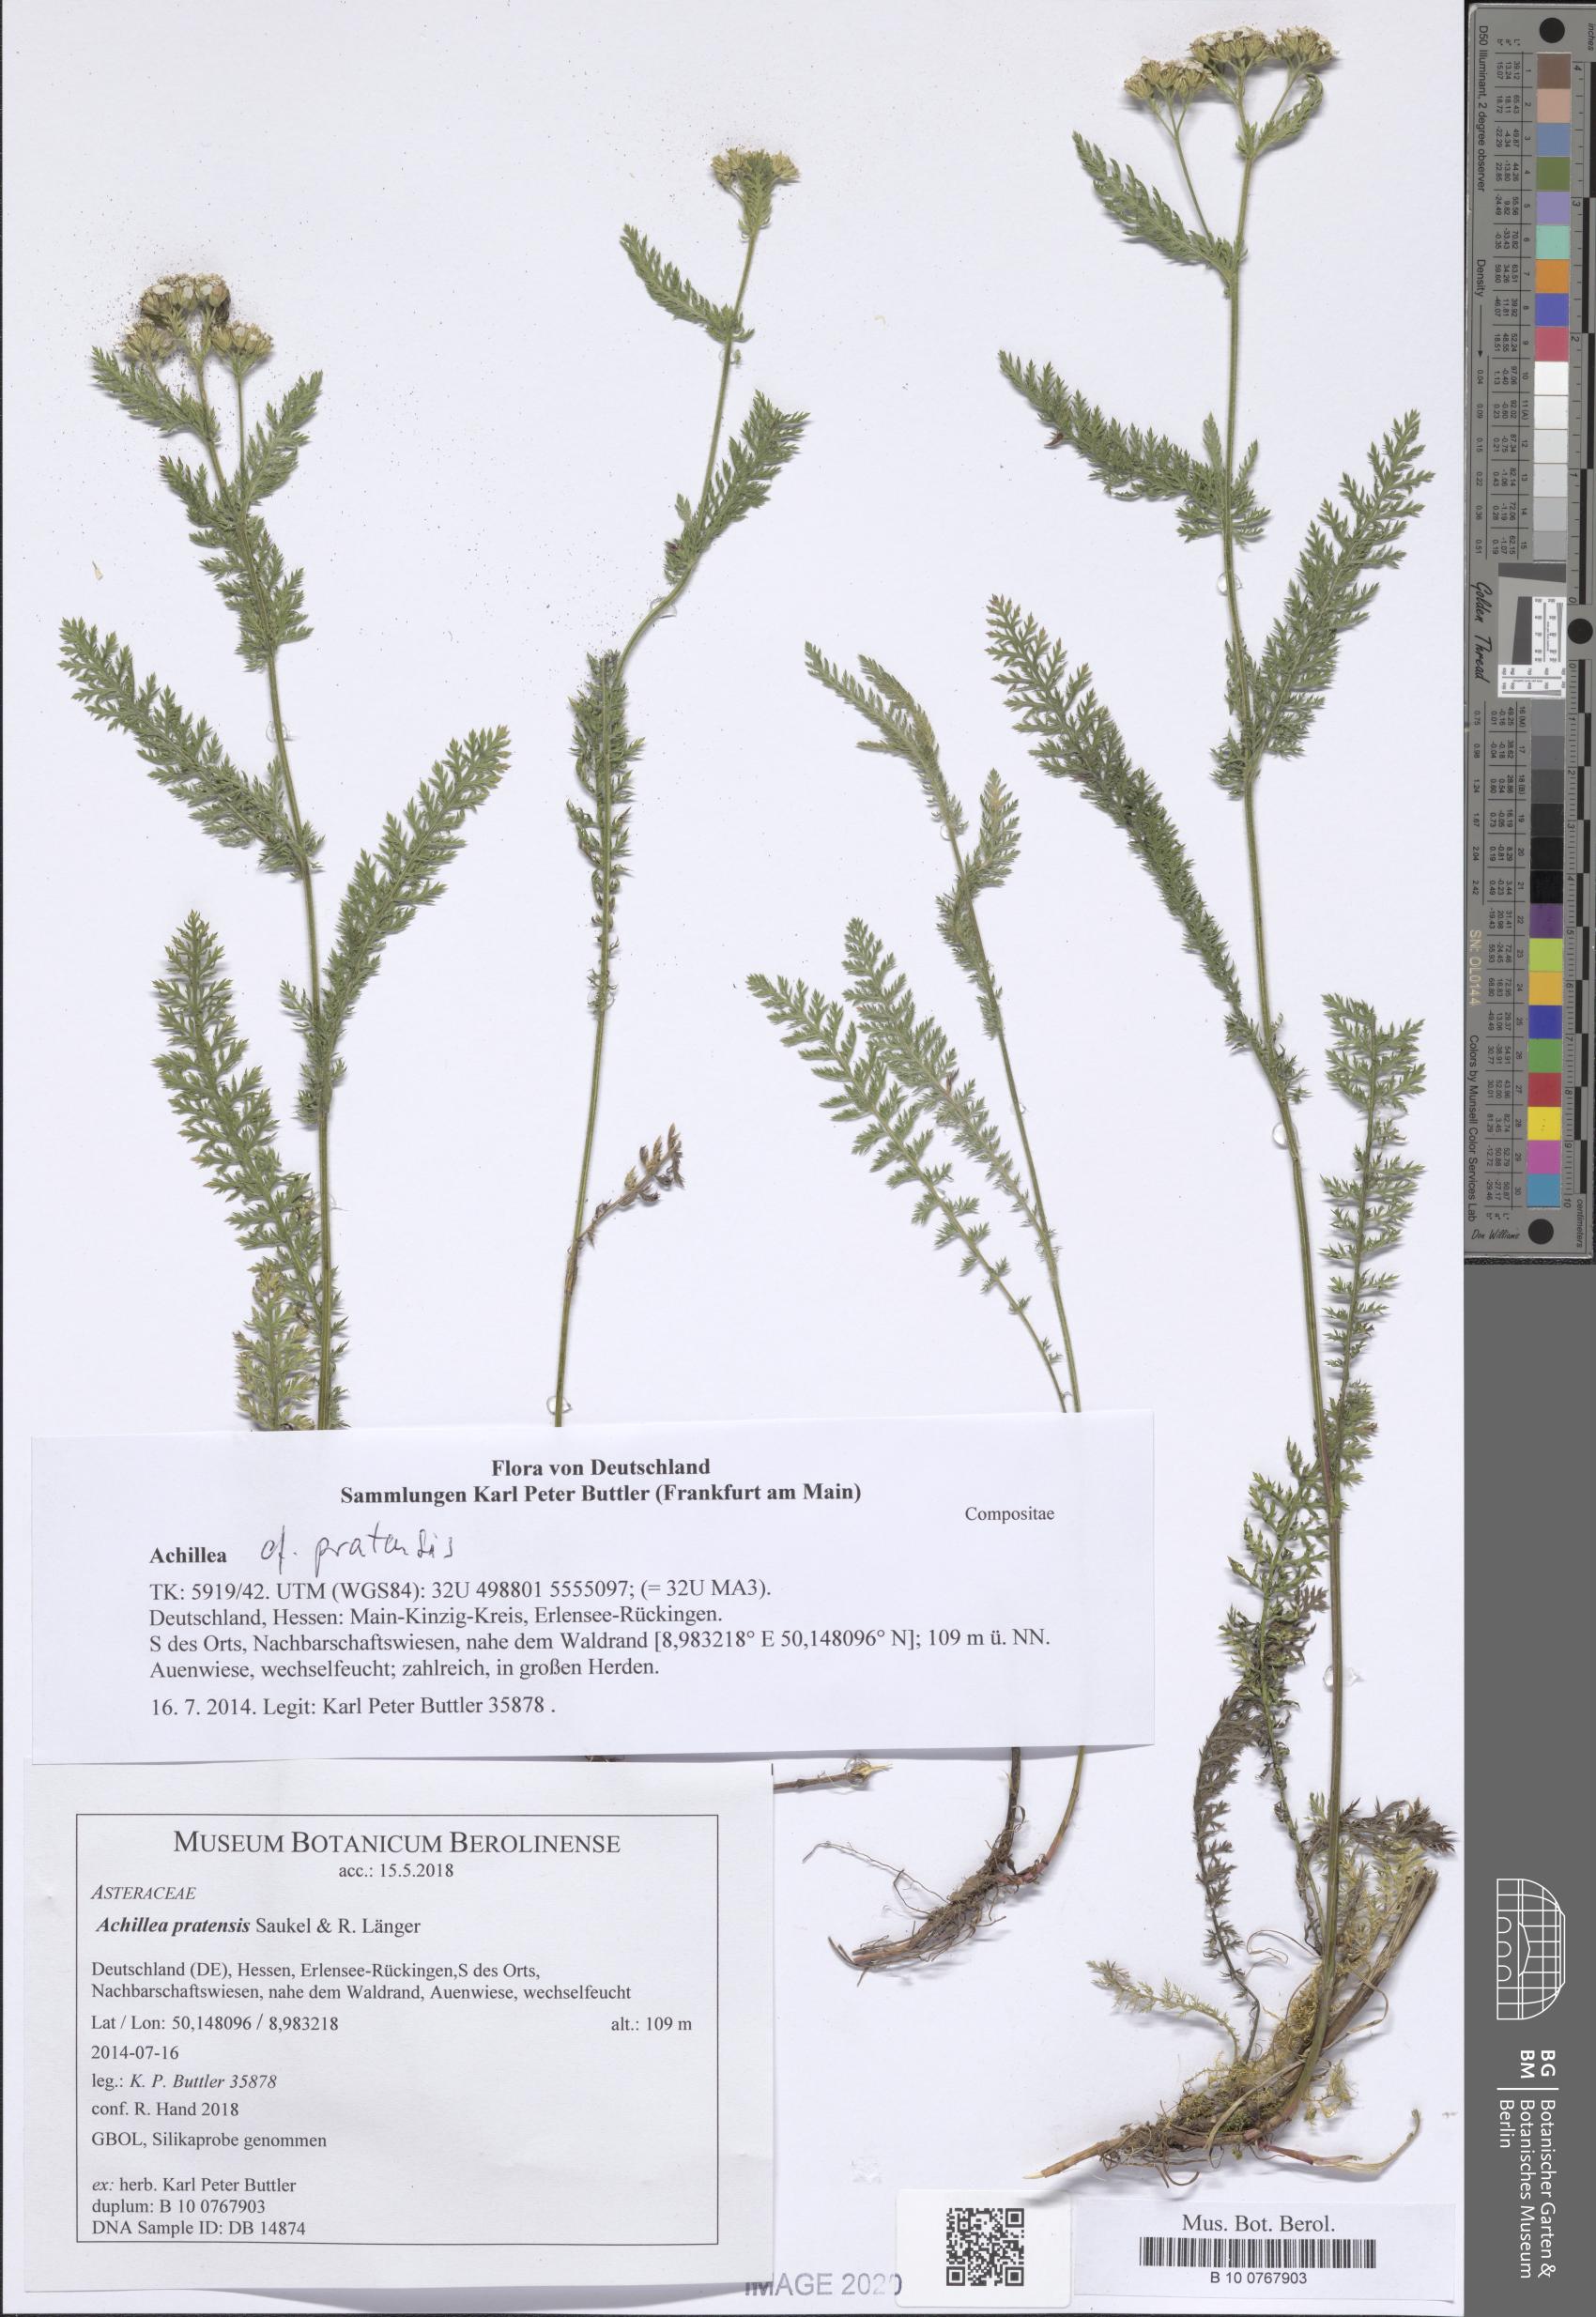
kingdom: Plantae
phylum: Tracheophyta
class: Magnoliopsida
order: Asterales
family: Asteraceae
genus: Achillea
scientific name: Achillea pratensis
